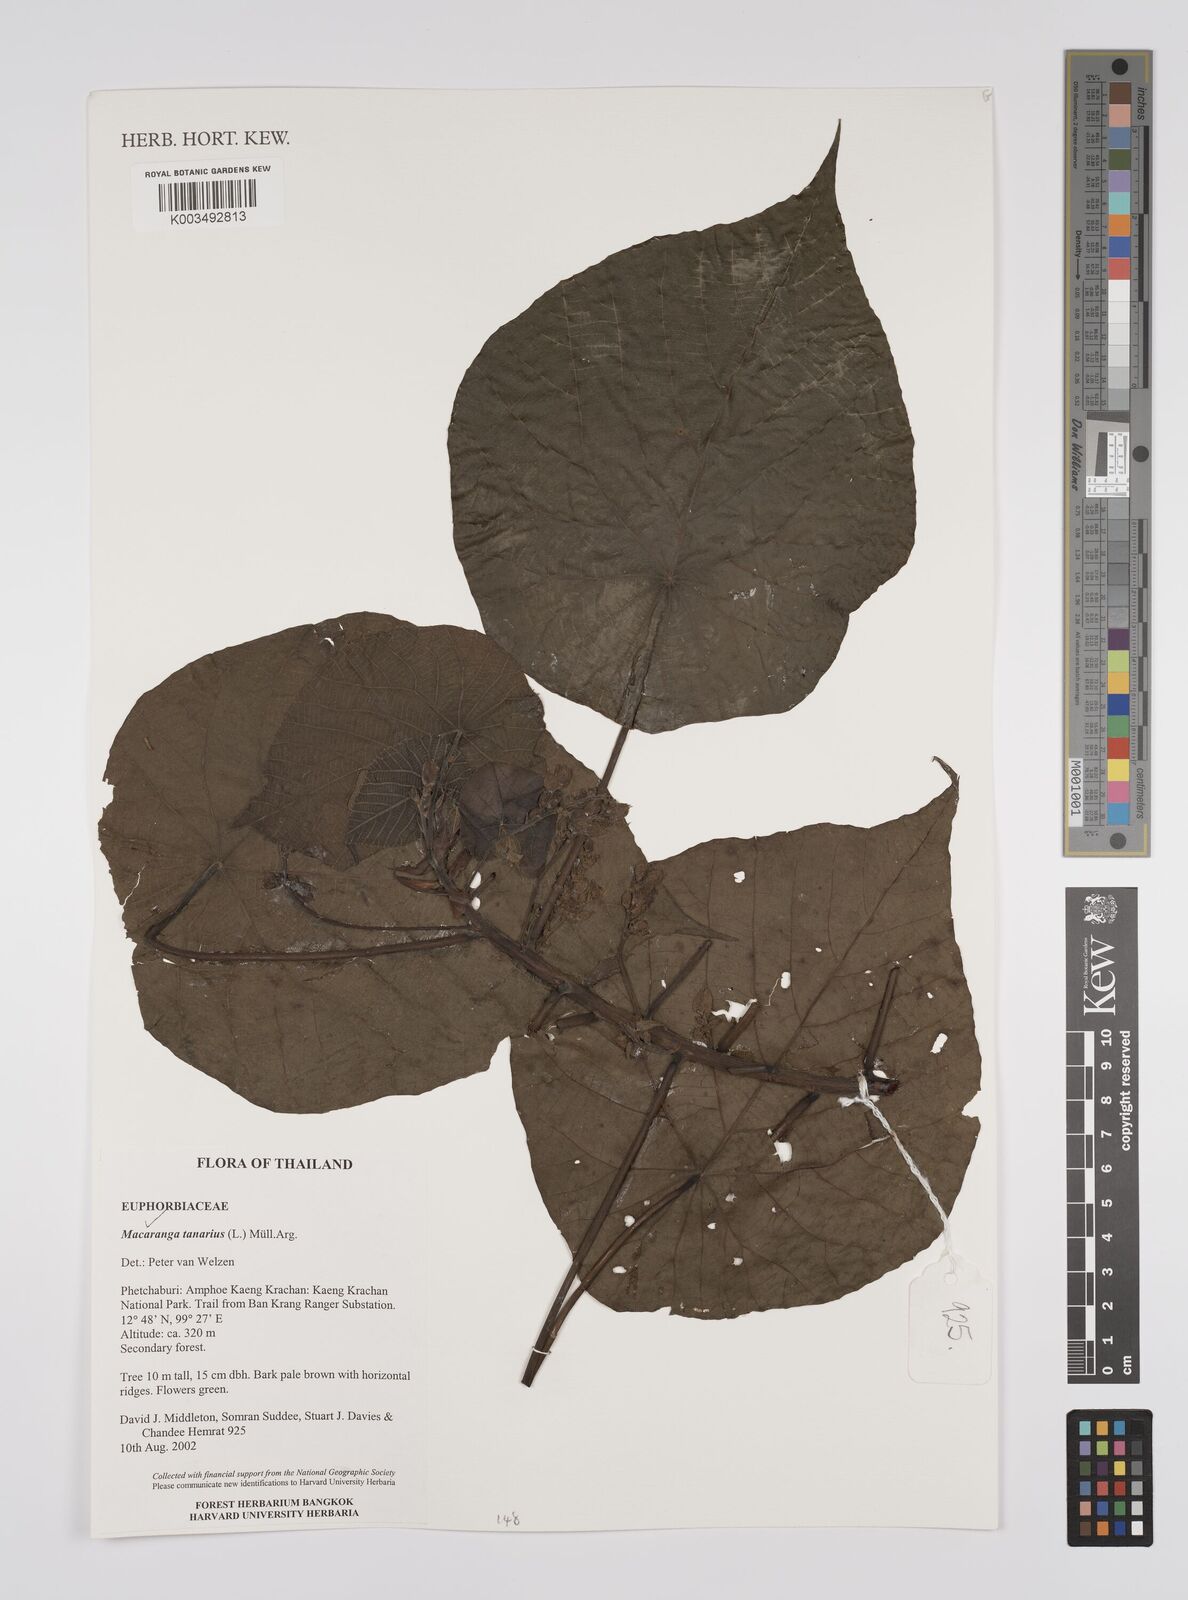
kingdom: Plantae
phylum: Tracheophyta
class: Magnoliopsida
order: Malpighiales
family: Euphorbiaceae
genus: Macaranga
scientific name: Macaranga tanarius
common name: Parasol leaf tree
